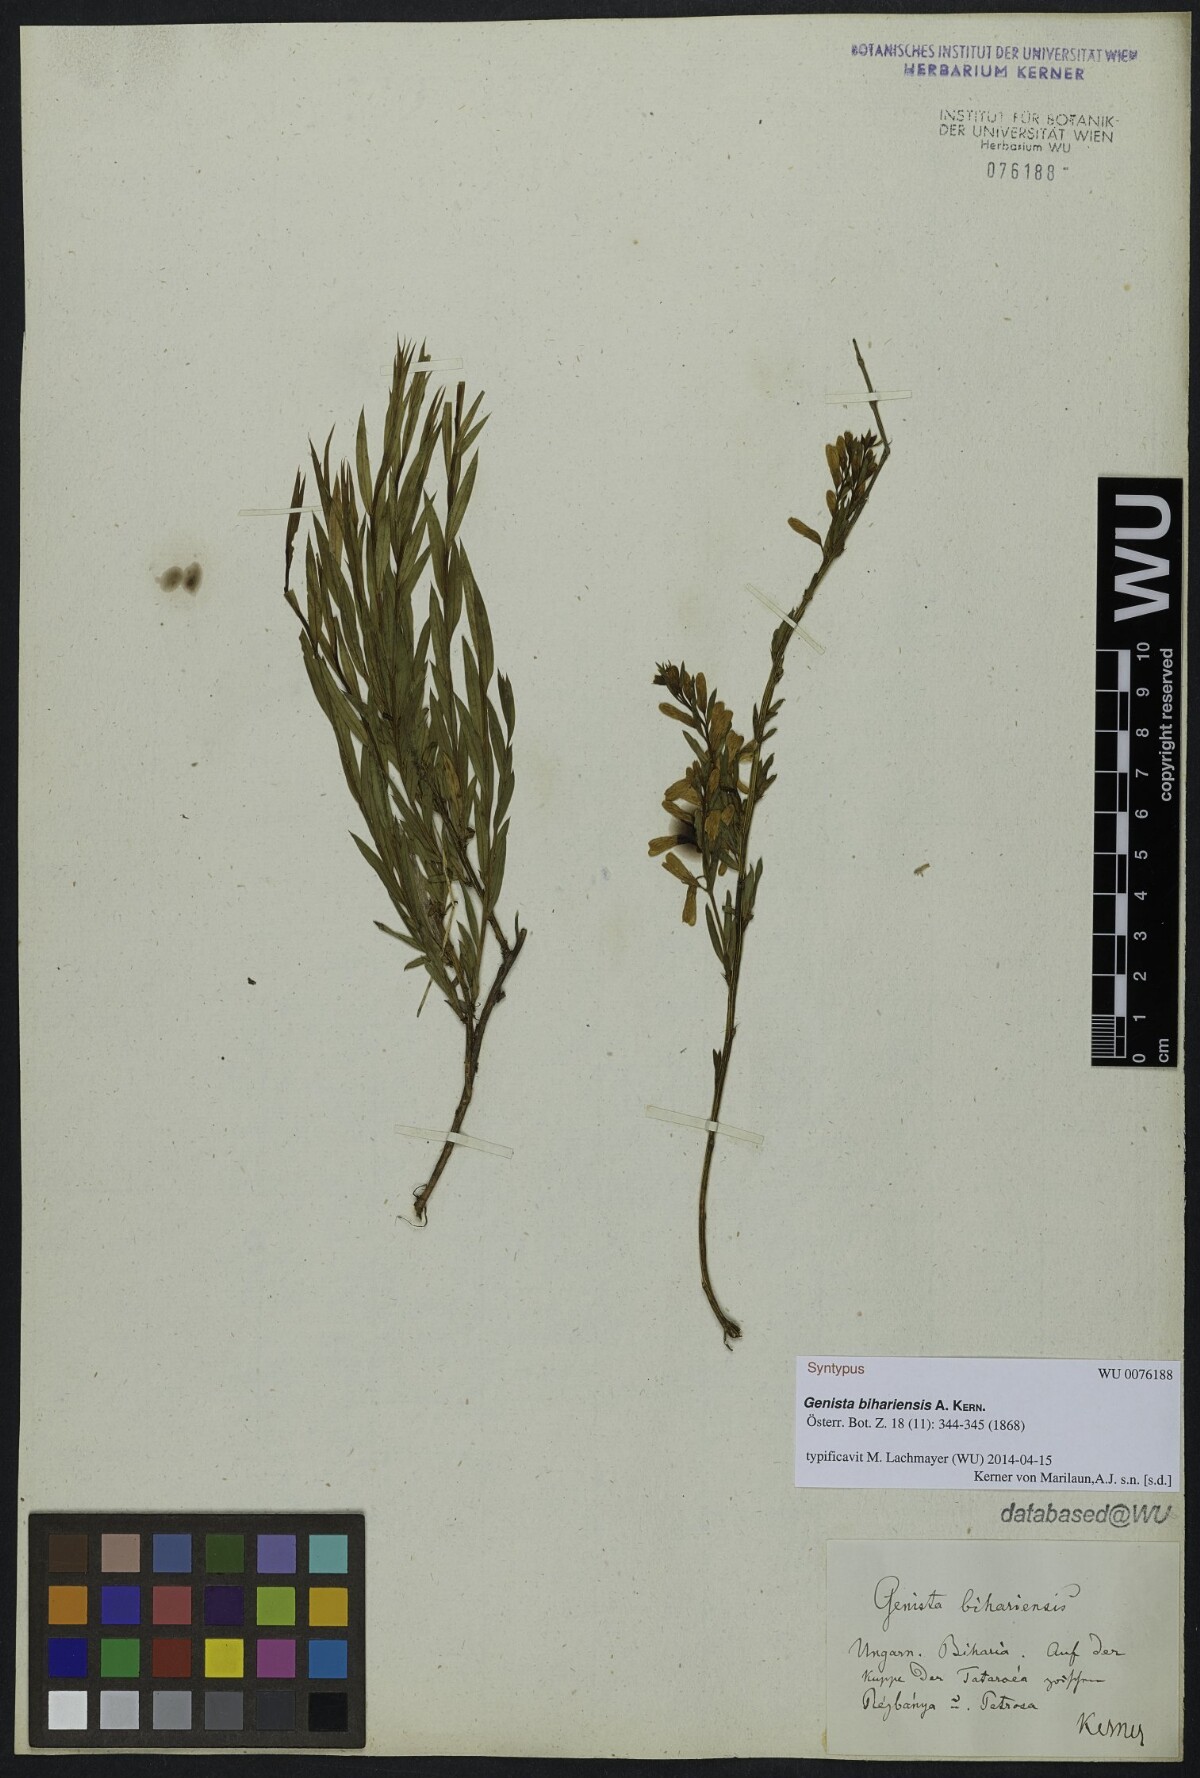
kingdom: Plantae
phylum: Tracheophyta
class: Magnoliopsida
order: Fabales
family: Fabaceae
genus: Genista
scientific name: Genista
